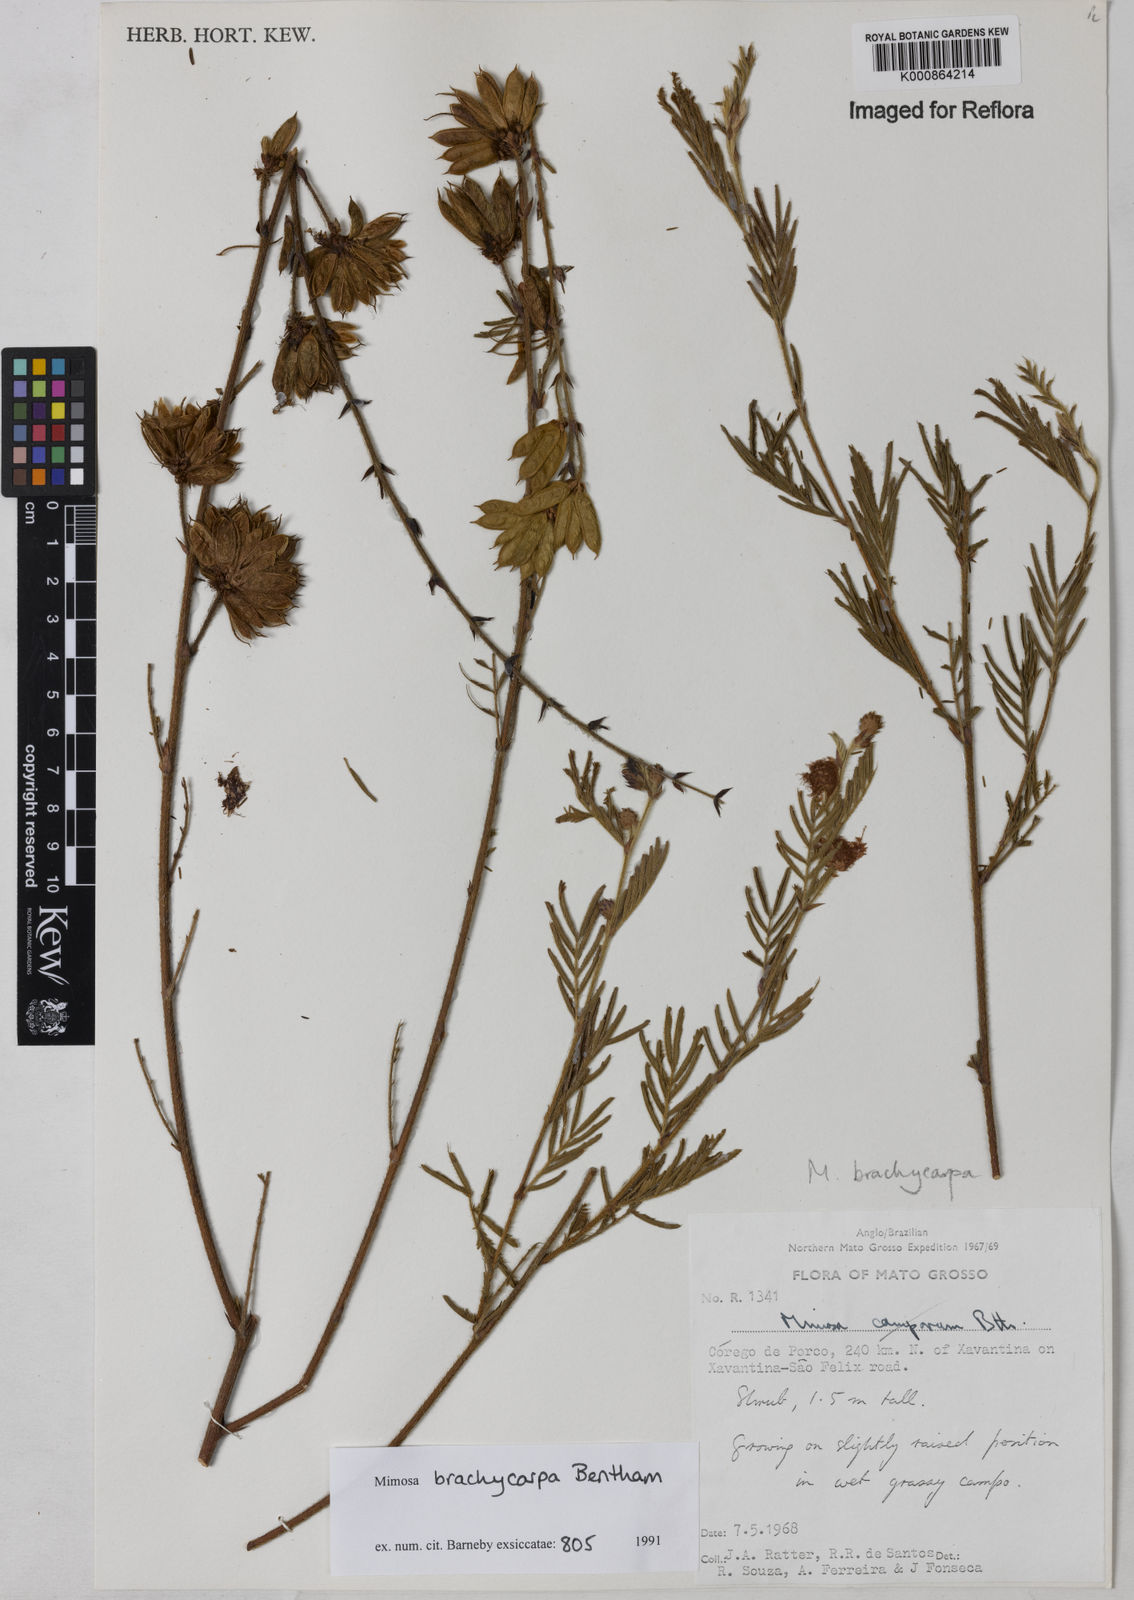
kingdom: Plantae
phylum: Tracheophyta
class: Magnoliopsida
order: Fabales
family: Fabaceae
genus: Mimosa
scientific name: Mimosa brachycarpa
